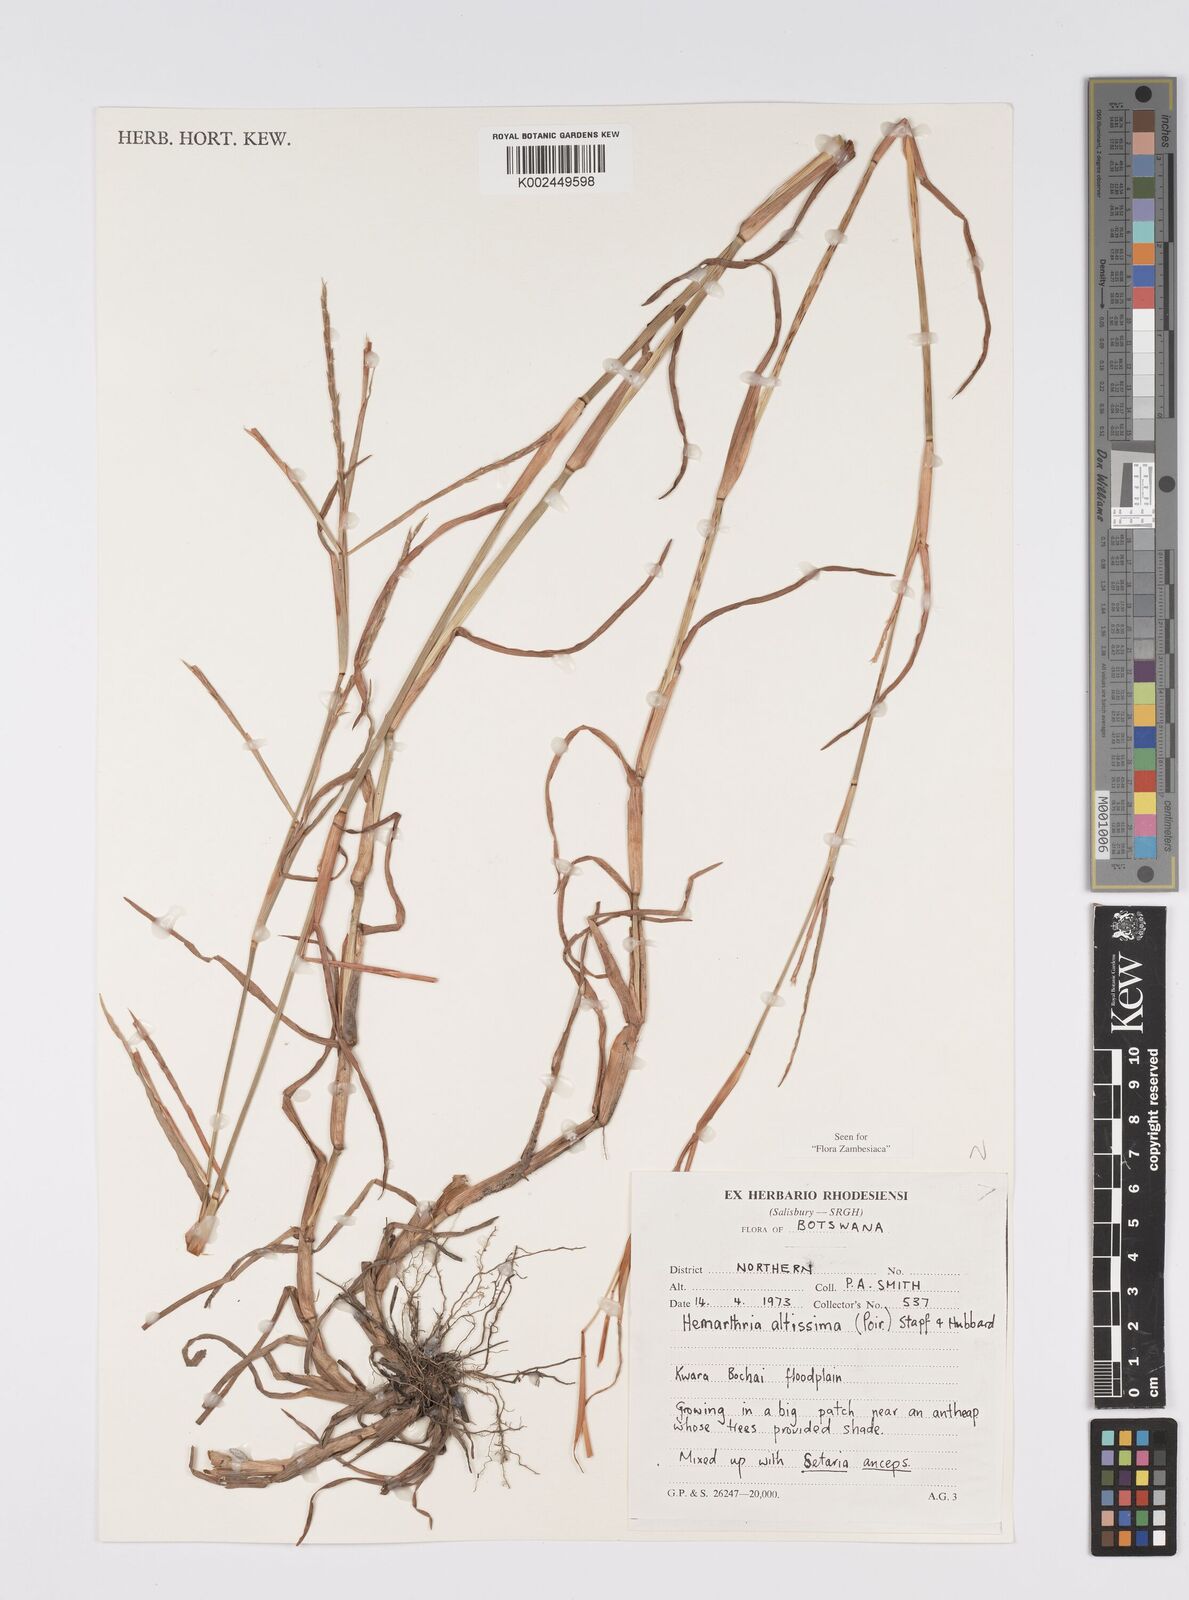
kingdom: Plantae
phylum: Tracheophyta
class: Liliopsida
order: Poales
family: Poaceae
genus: Hemarthria
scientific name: Hemarthria altissima
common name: African jointgrass
